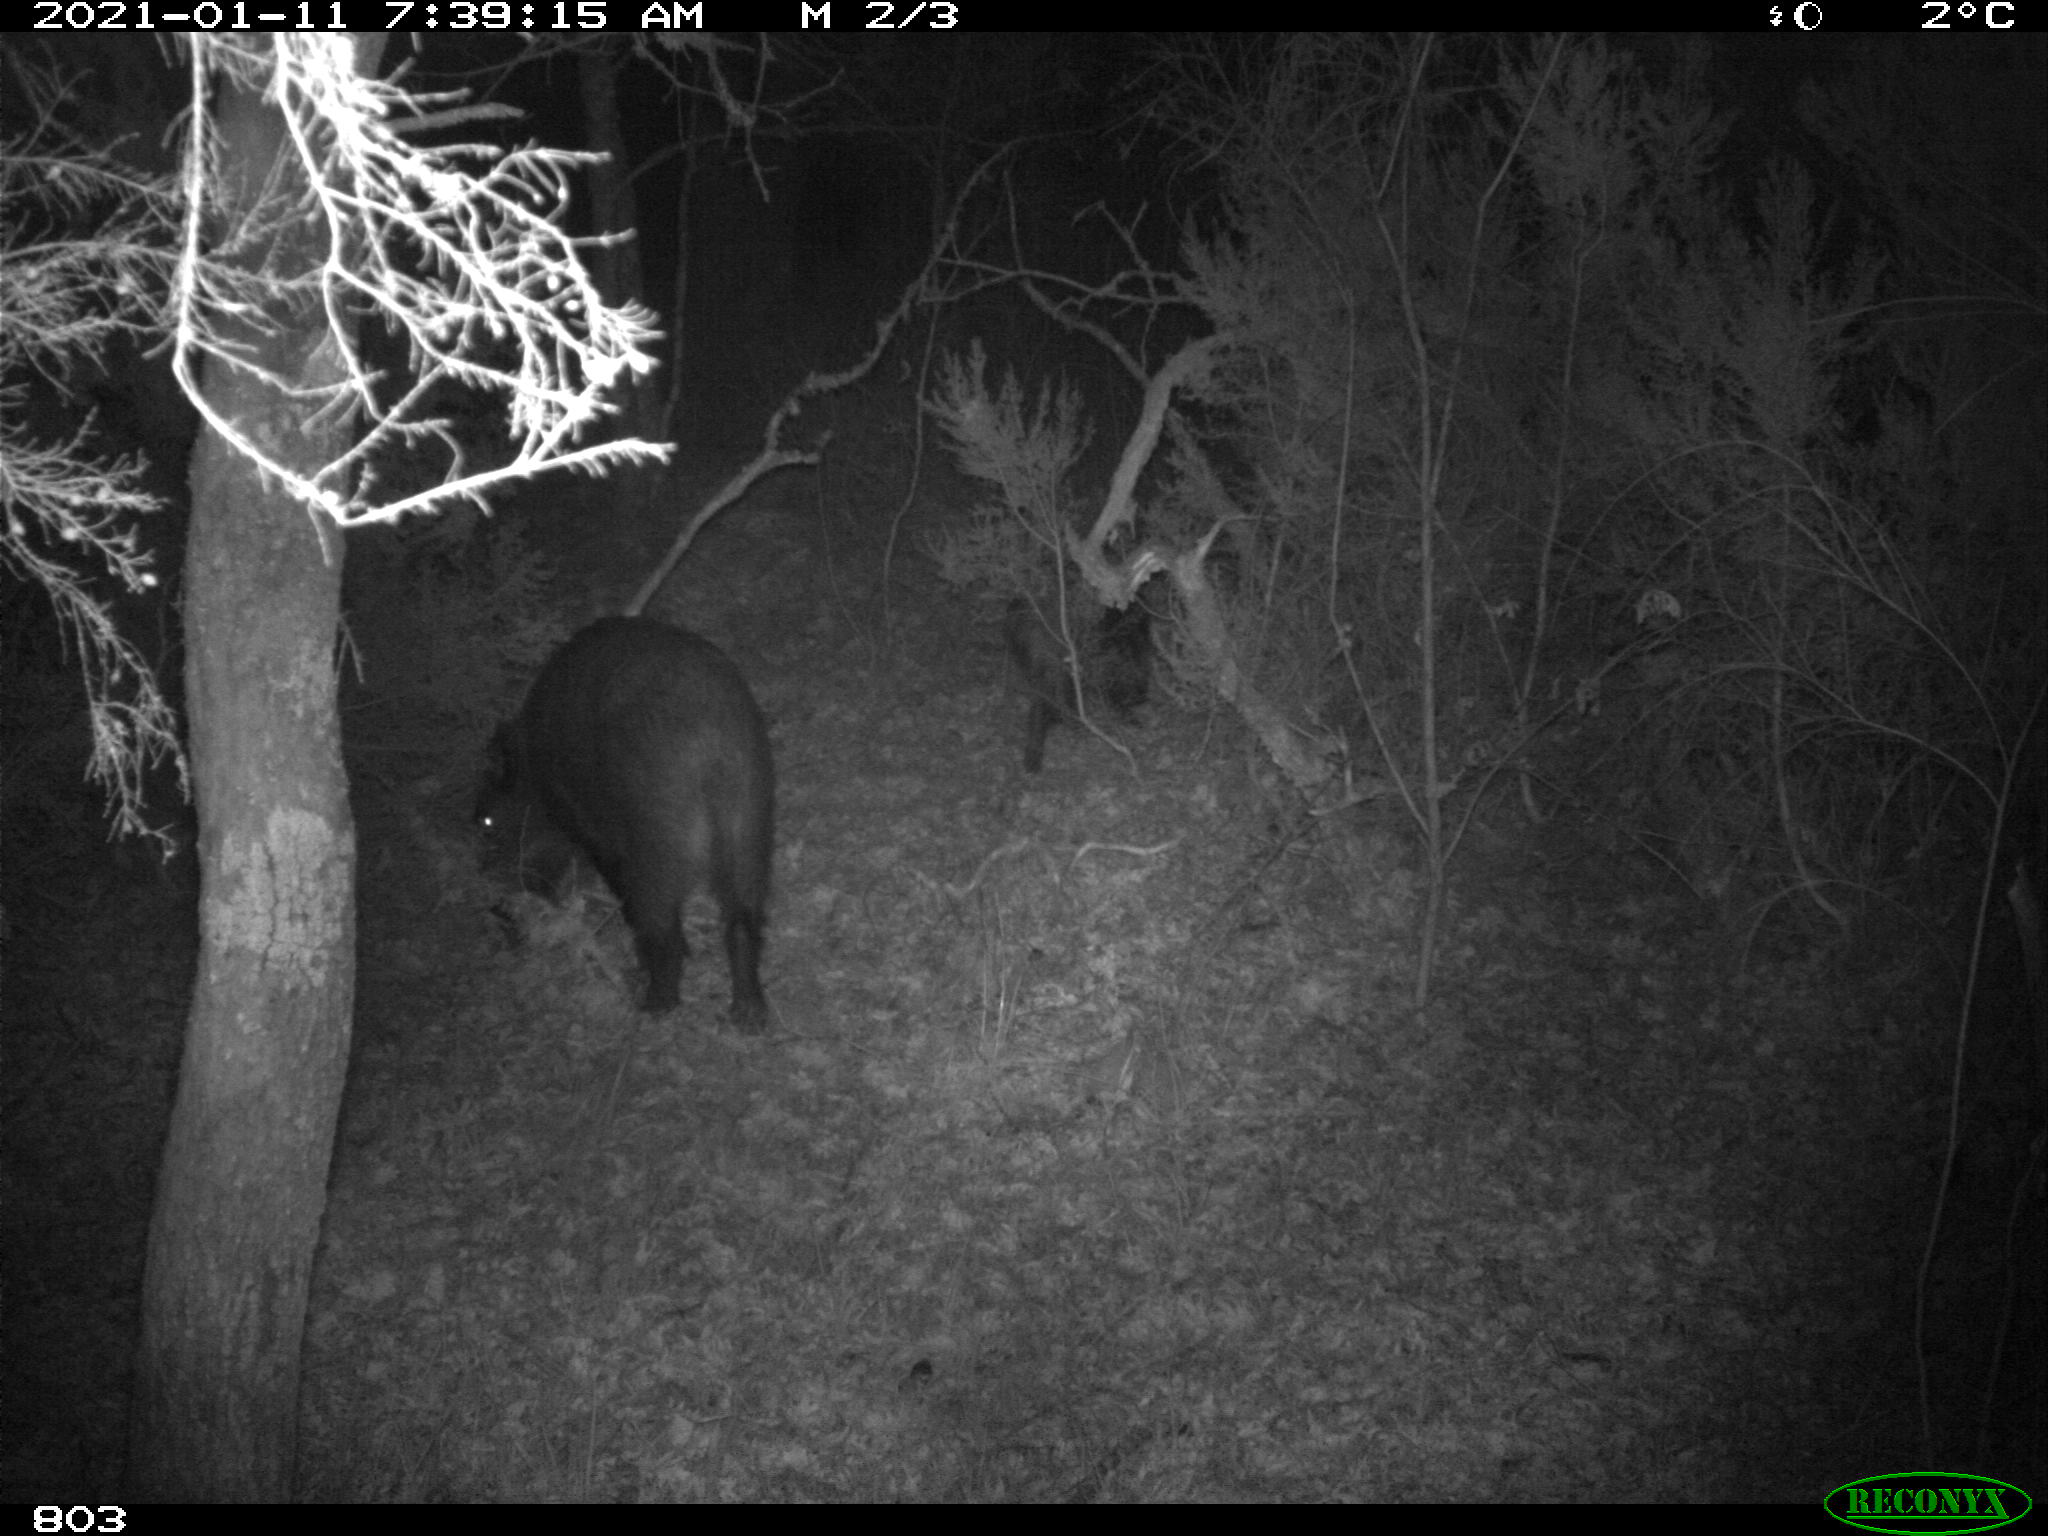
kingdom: Animalia
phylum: Chordata
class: Mammalia
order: Artiodactyla
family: Suidae
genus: Sus
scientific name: Sus scrofa
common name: Wild boar
